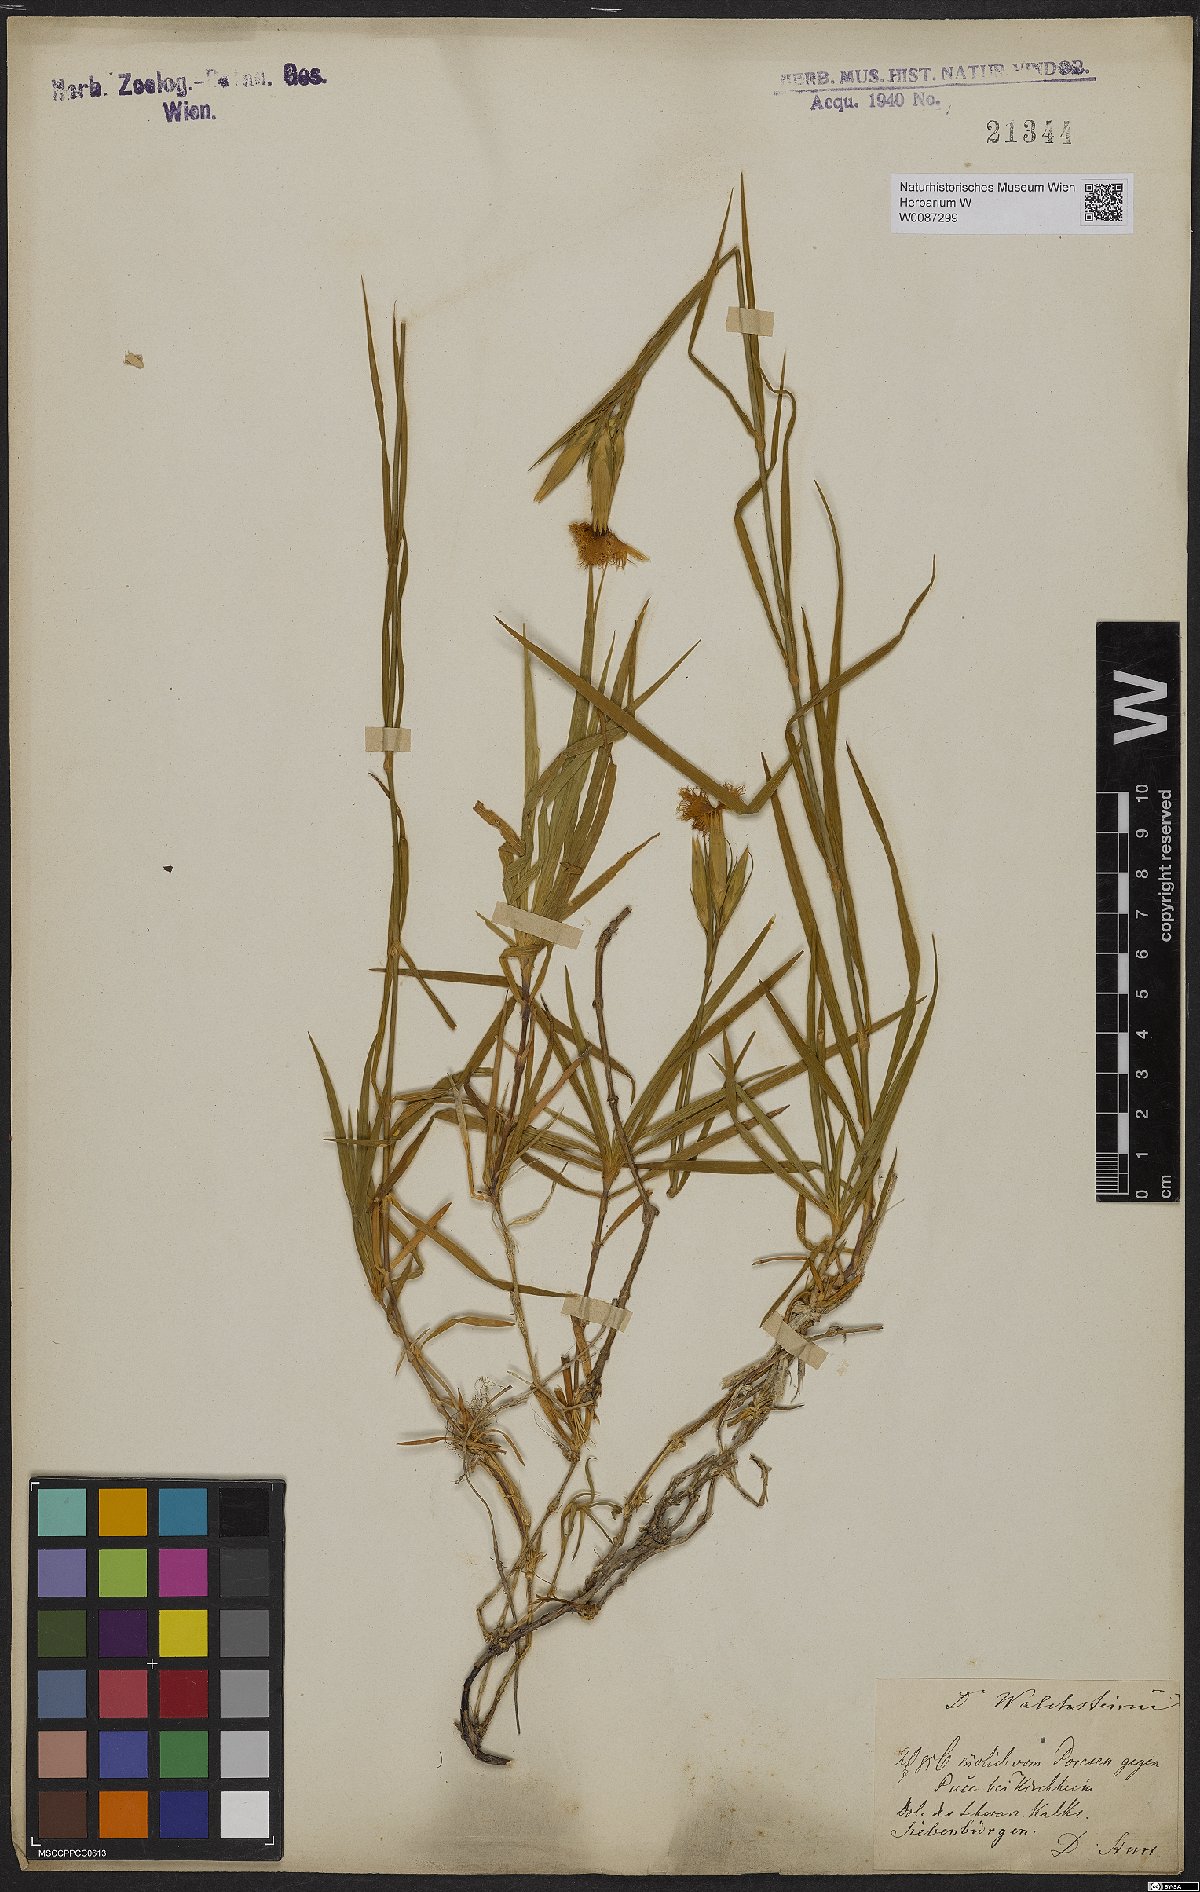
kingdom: Plantae
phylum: Tracheophyta
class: Magnoliopsida
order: Caryophyllales
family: Caryophyllaceae
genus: Dianthus
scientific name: Dianthus
